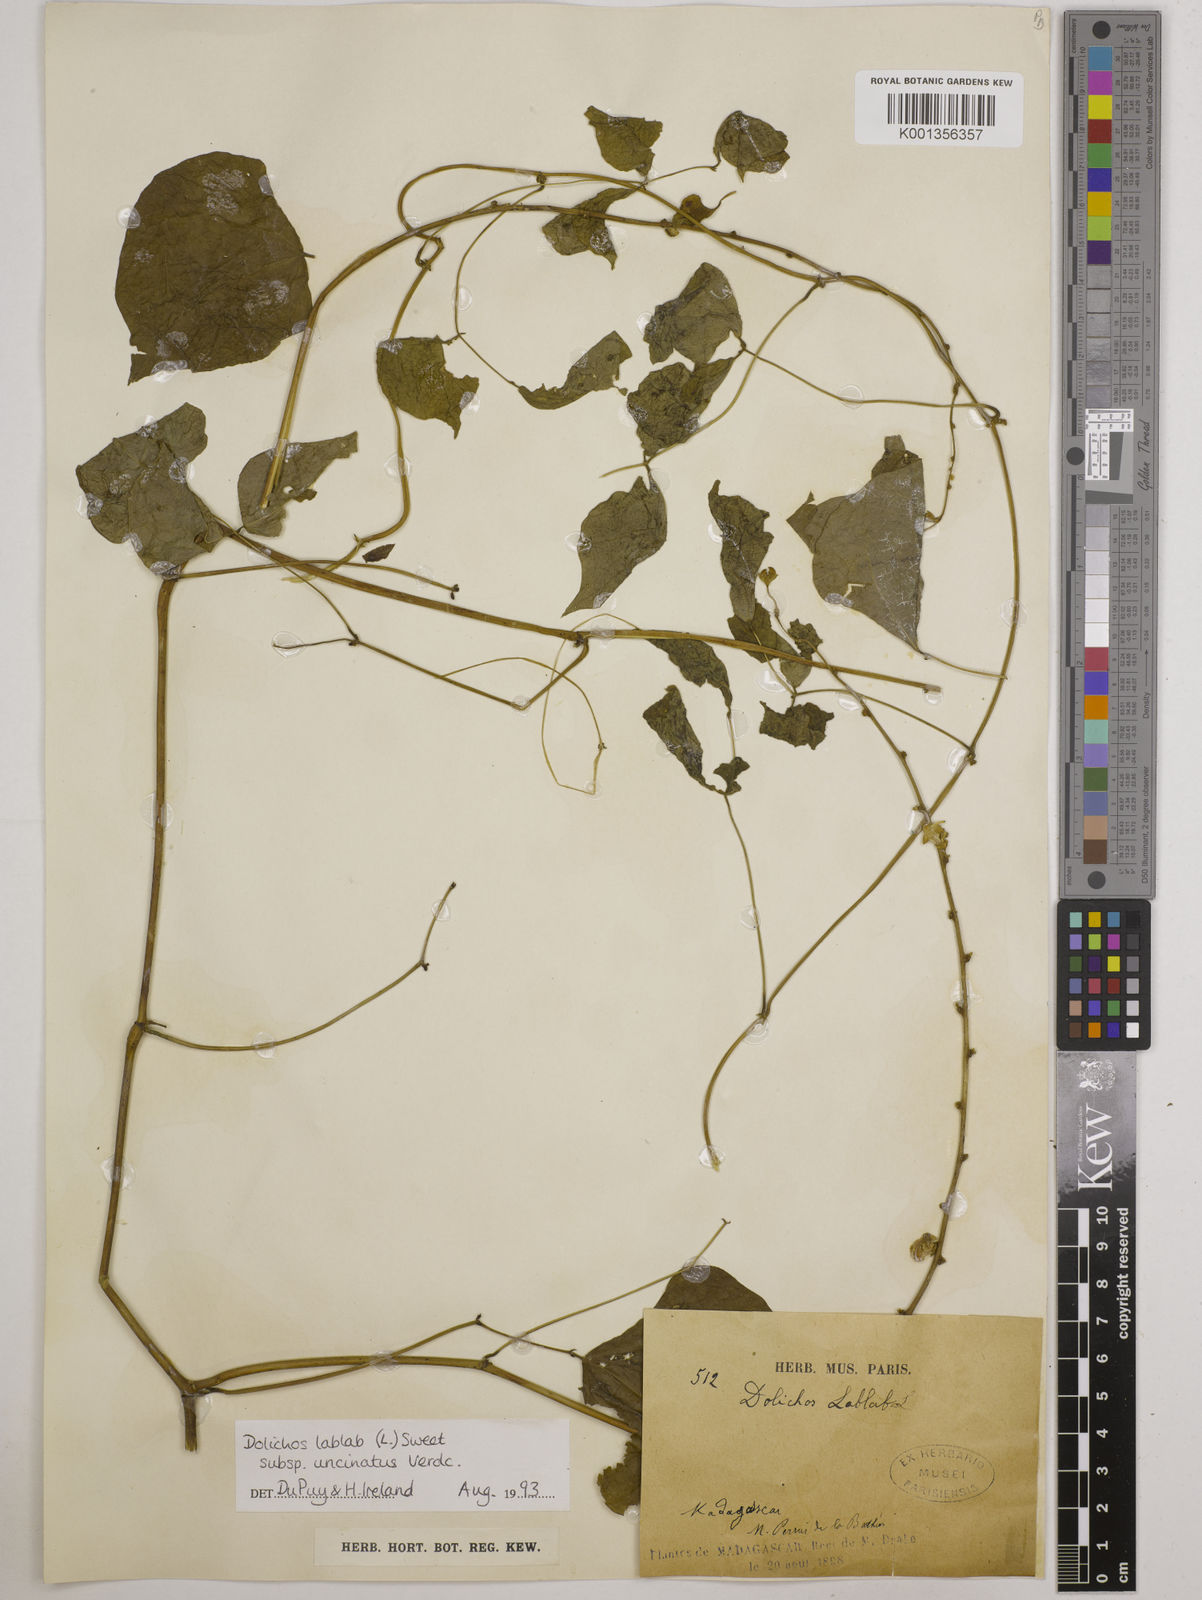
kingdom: Plantae
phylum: Tracheophyta
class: Magnoliopsida
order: Fabales
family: Fabaceae
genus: Lablab
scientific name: Lablab purpureus
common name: Lablab-bean
